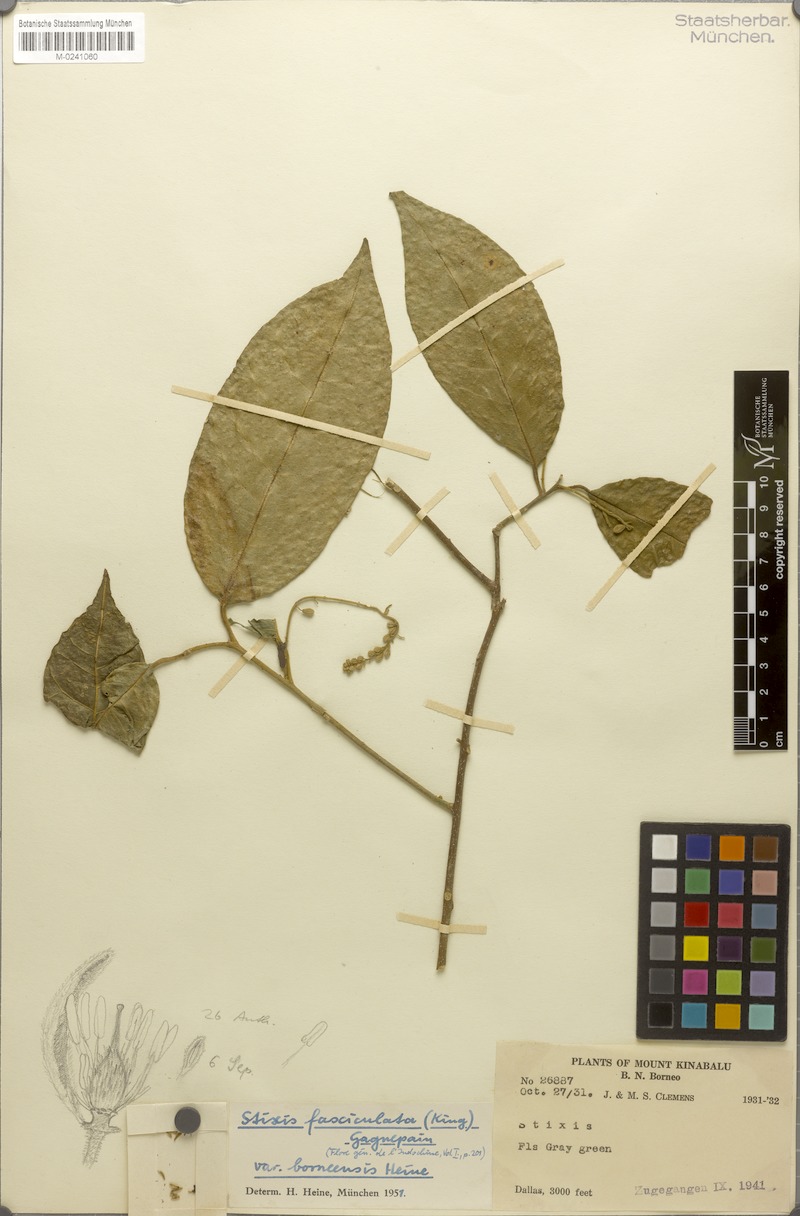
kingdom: Plantae
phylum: Tracheophyta
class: Magnoliopsida
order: Brassicales
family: Stixaceae
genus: Stixis
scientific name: Stixis ovata
